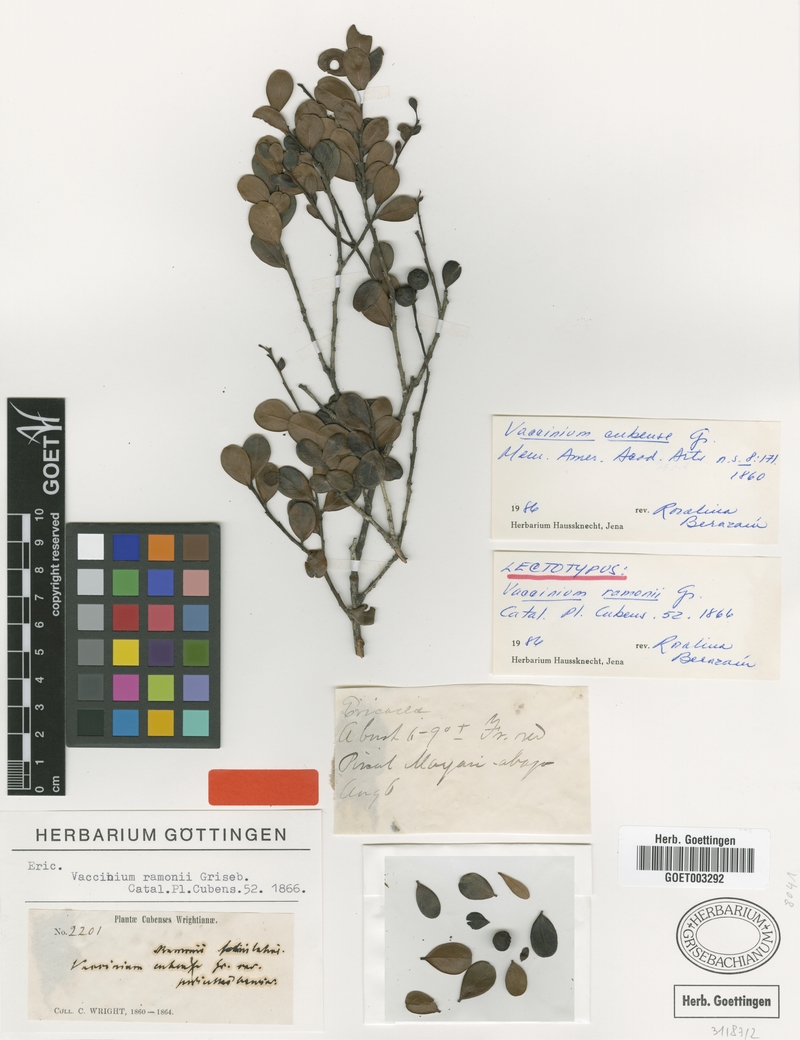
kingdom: Plantae
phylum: Tracheophyta
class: Magnoliopsida
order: Ericales
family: Ericaceae
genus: Vaccinium
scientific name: Vaccinium cubense
